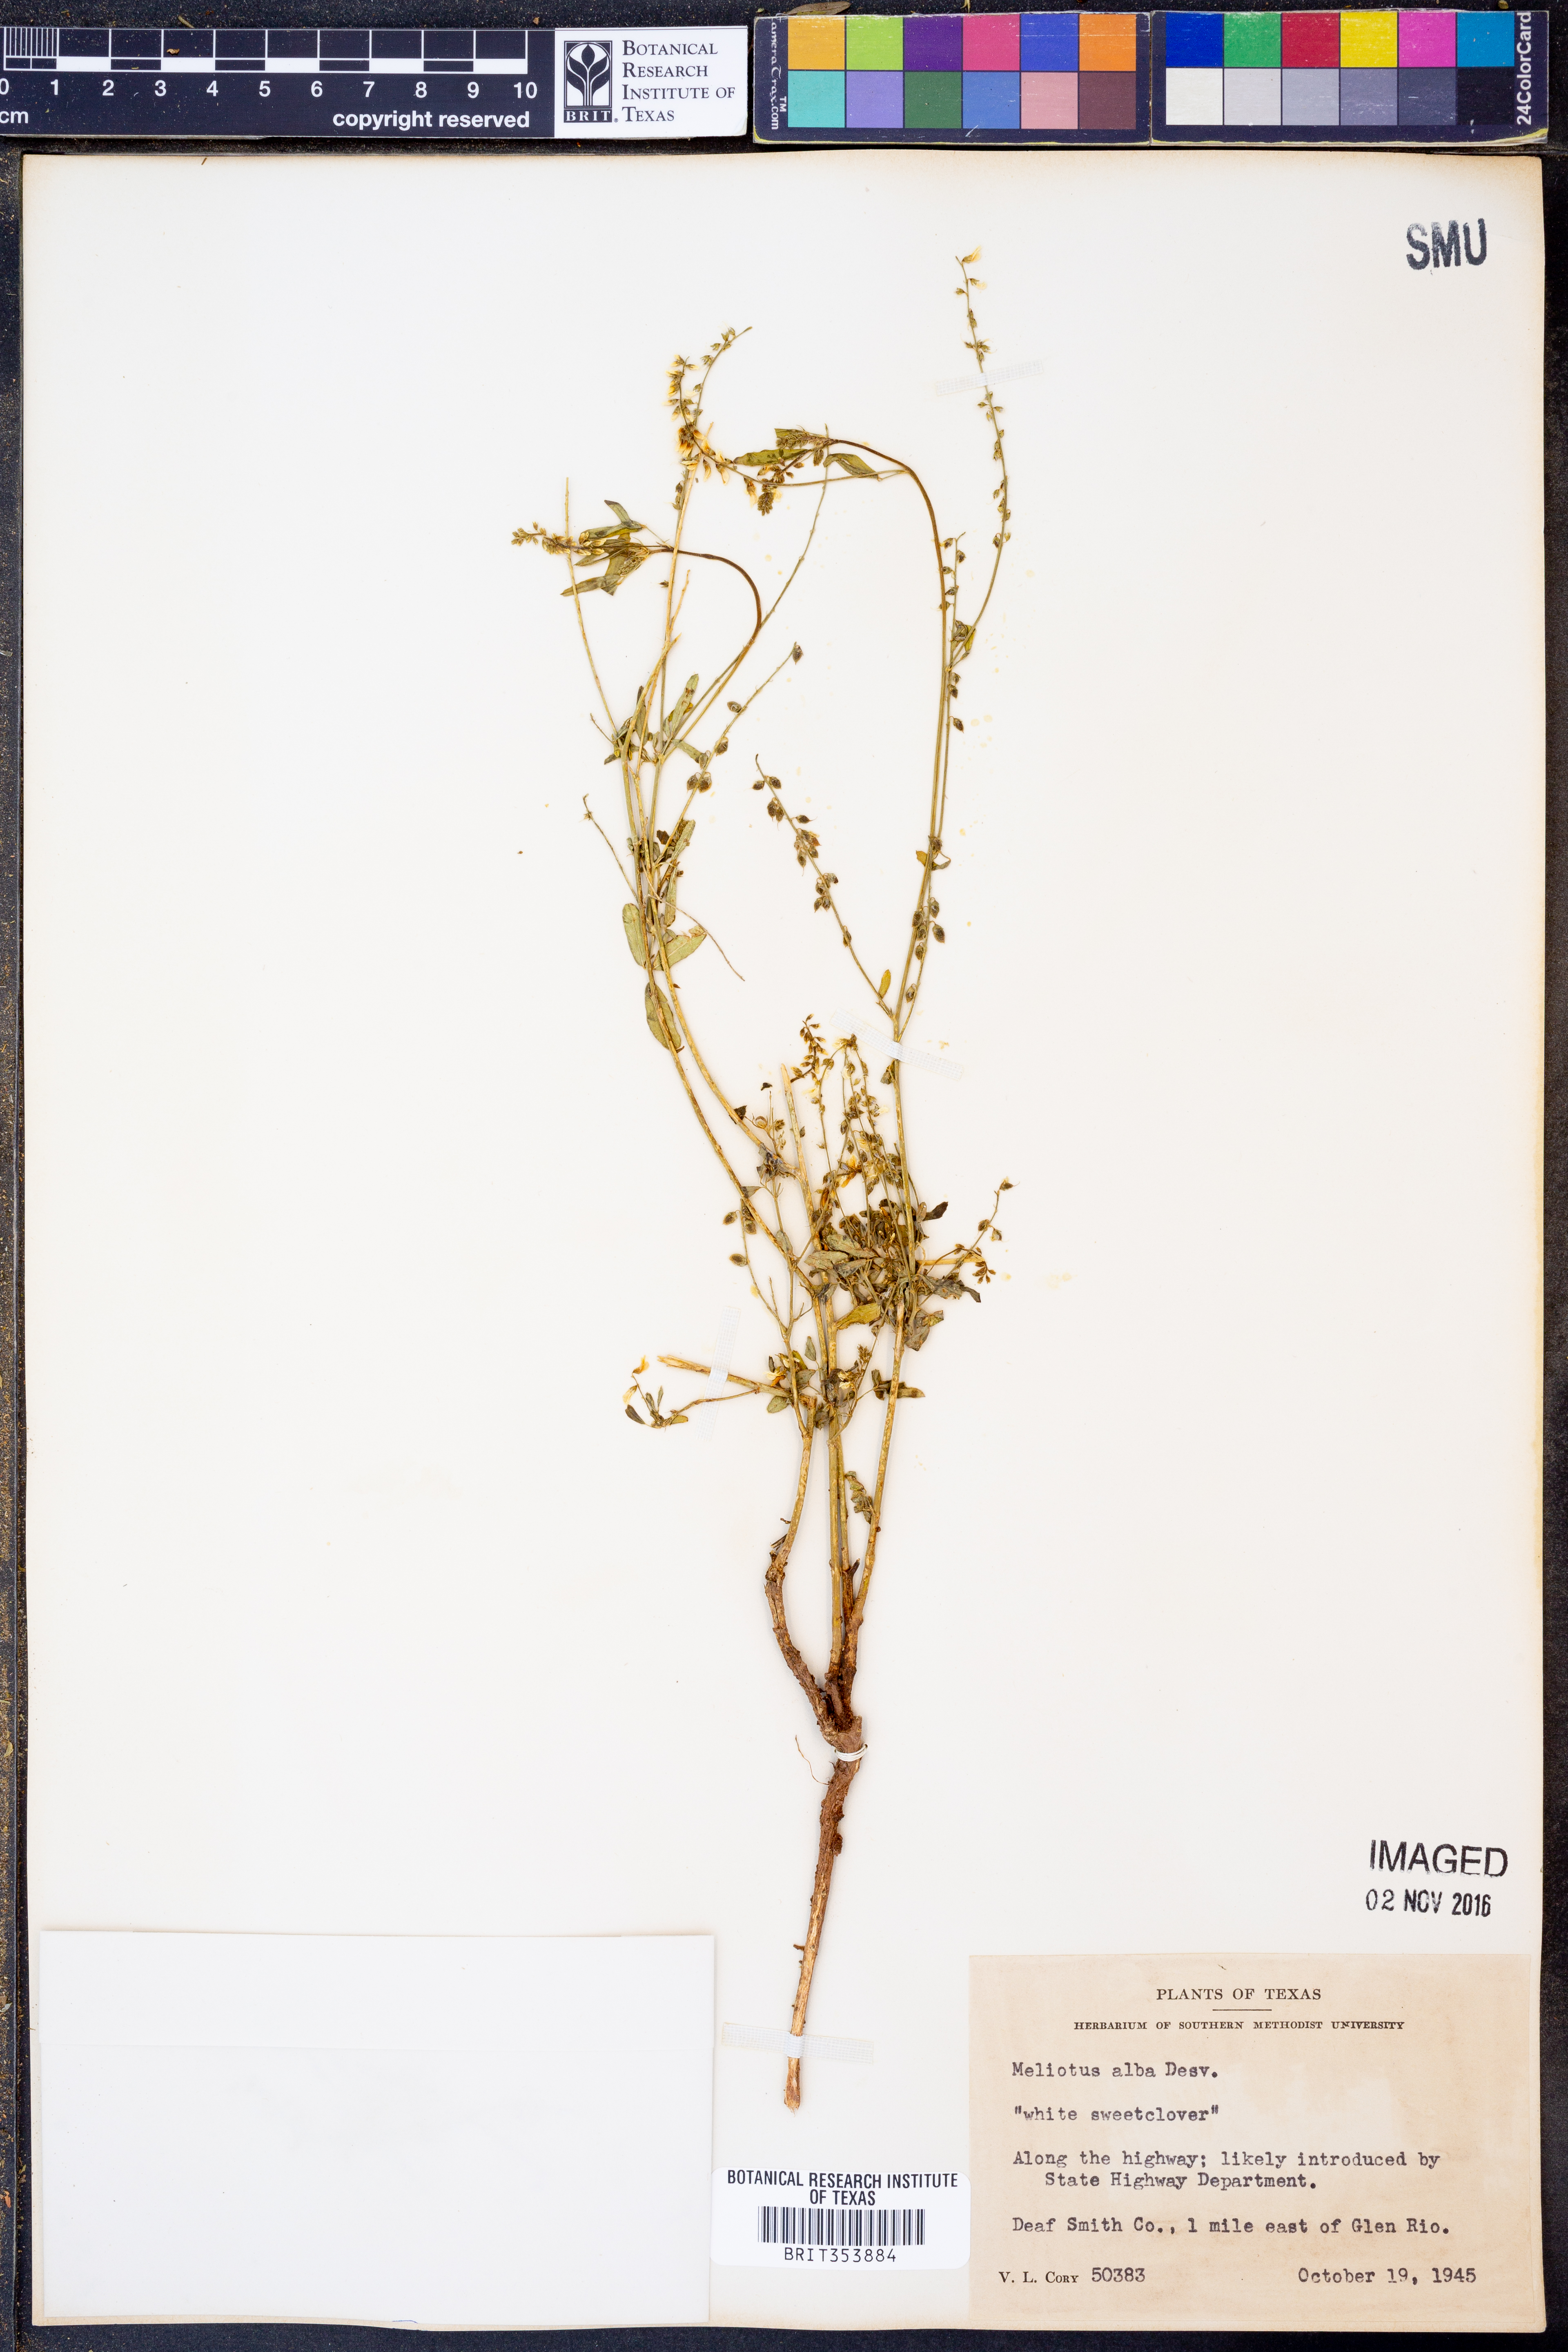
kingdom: Plantae
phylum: Tracheophyta
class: Magnoliopsida
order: Fabales
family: Fabaceae
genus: Melilotus
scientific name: Melilotus albus
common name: White melilot
